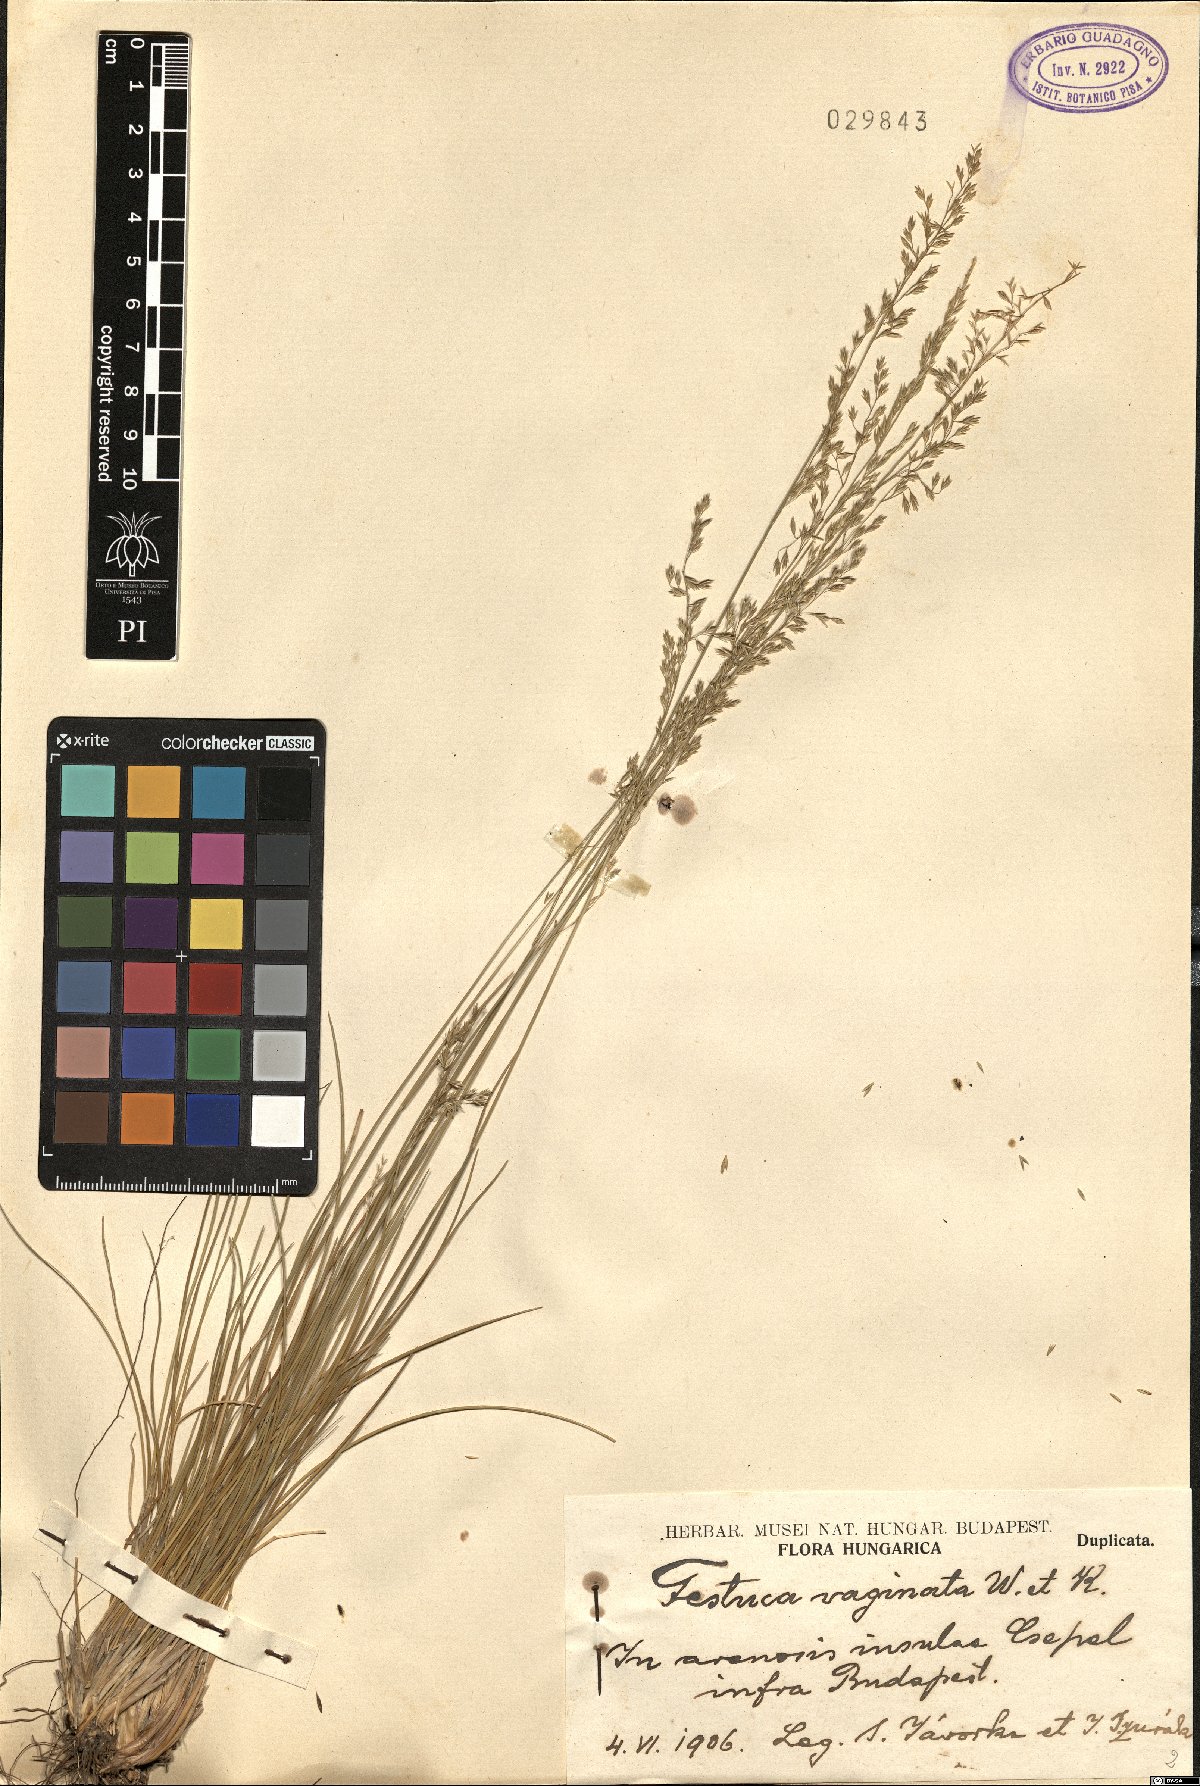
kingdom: Plantae
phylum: Tracheophyta
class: Liliopsida
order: Poales
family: Poaceae
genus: Festuca
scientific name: Festuca vaginata
